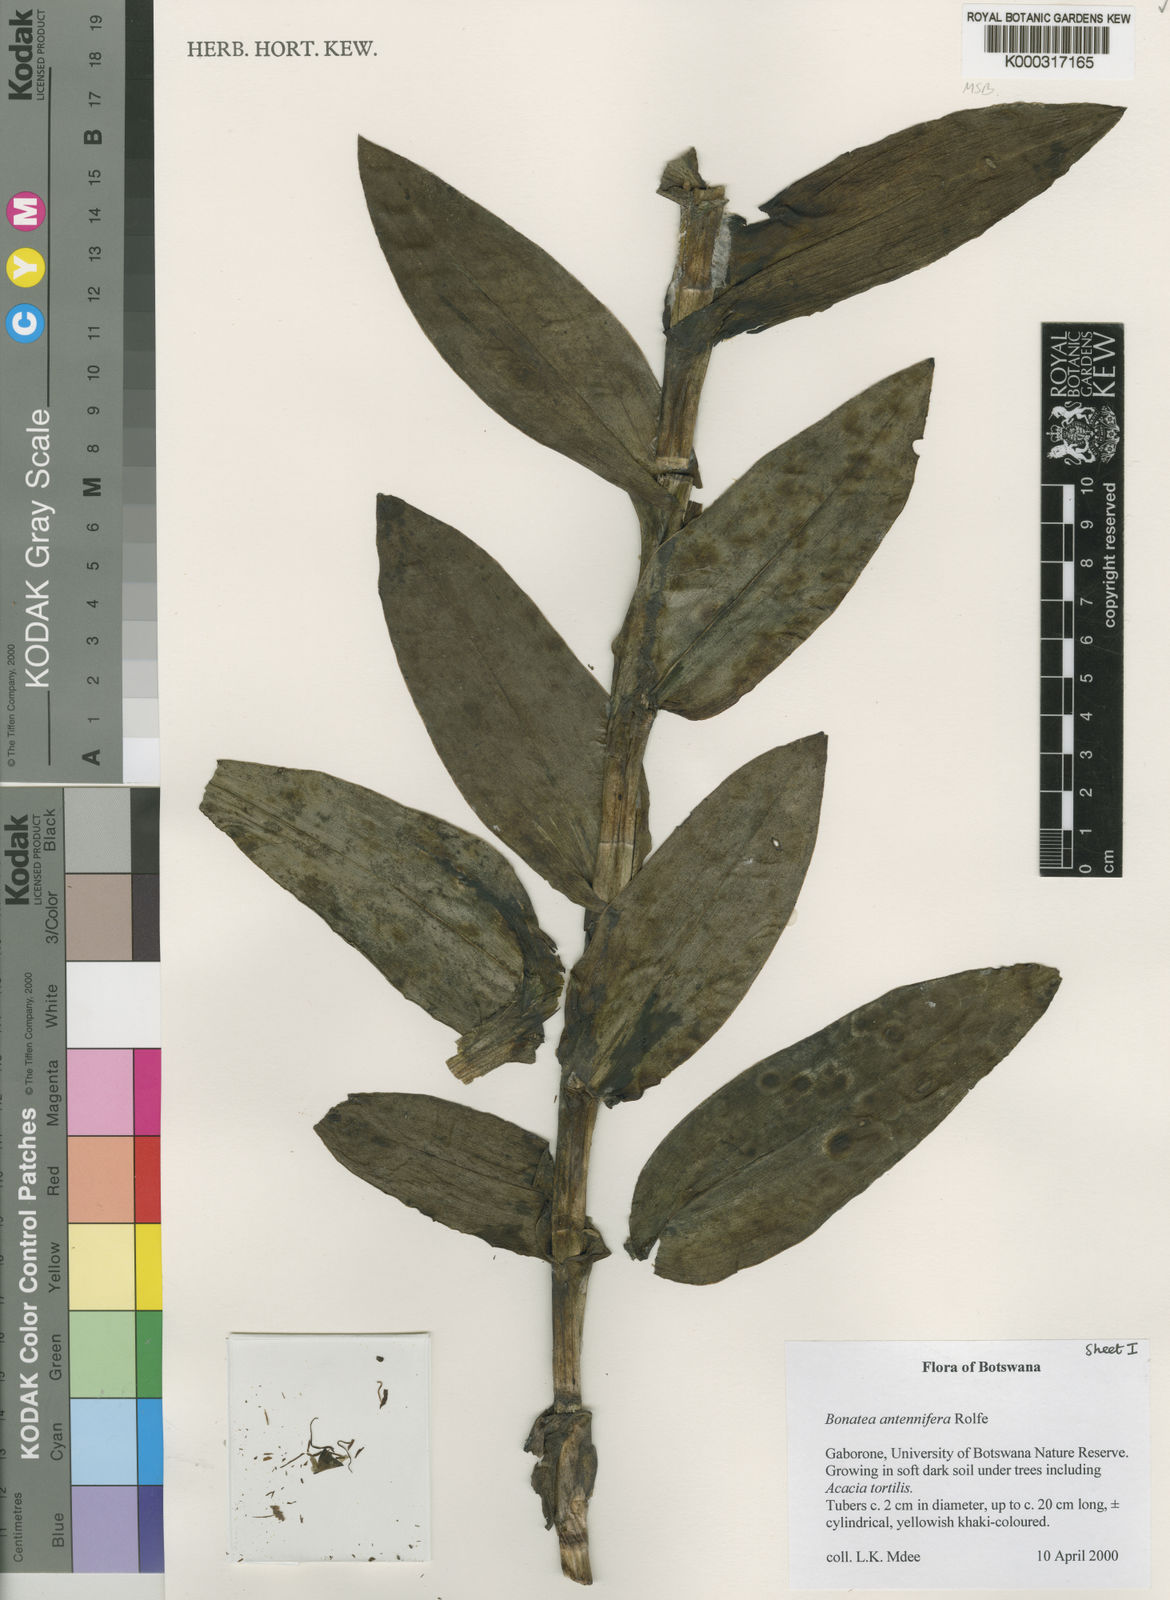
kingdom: Plantae
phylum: Tracheophyta
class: Liliopsida
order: Asparagales
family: Orchidaceae
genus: Bonatea
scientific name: Bonatea antennifera
